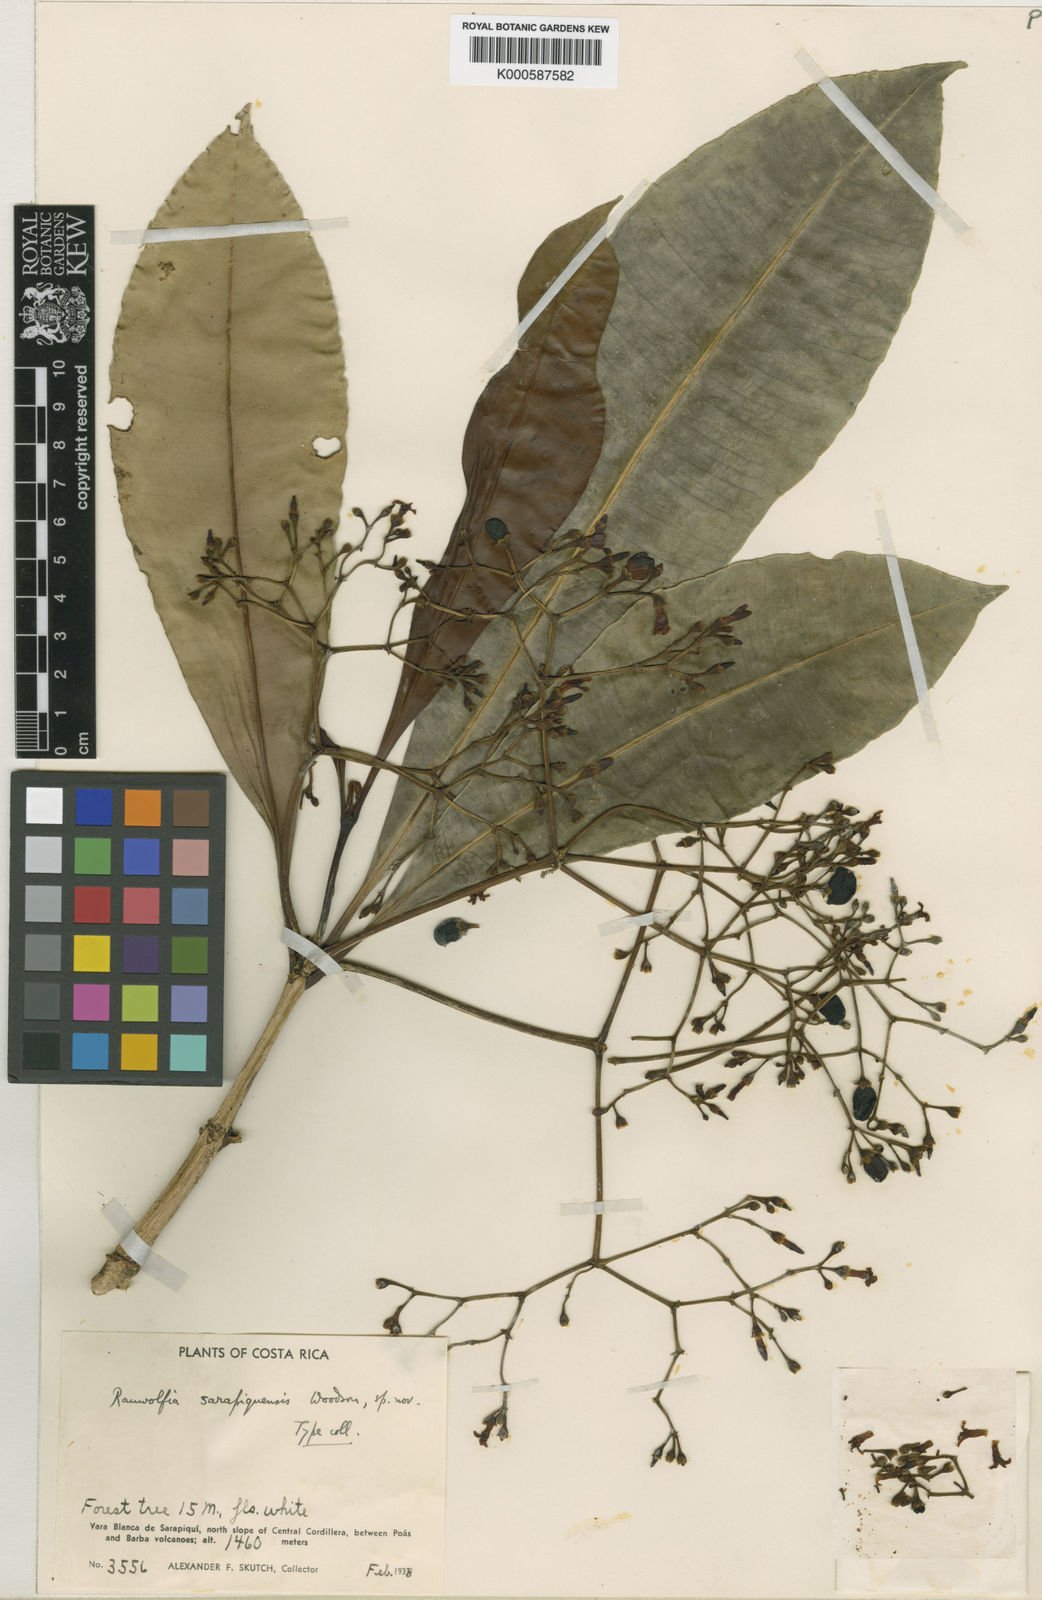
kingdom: Plantae
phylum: Tracheophyta
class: Magnoliopsida
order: Gentianales
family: Apocynaceae
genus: Rauvolfia
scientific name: Rauvolfia aphlebia
